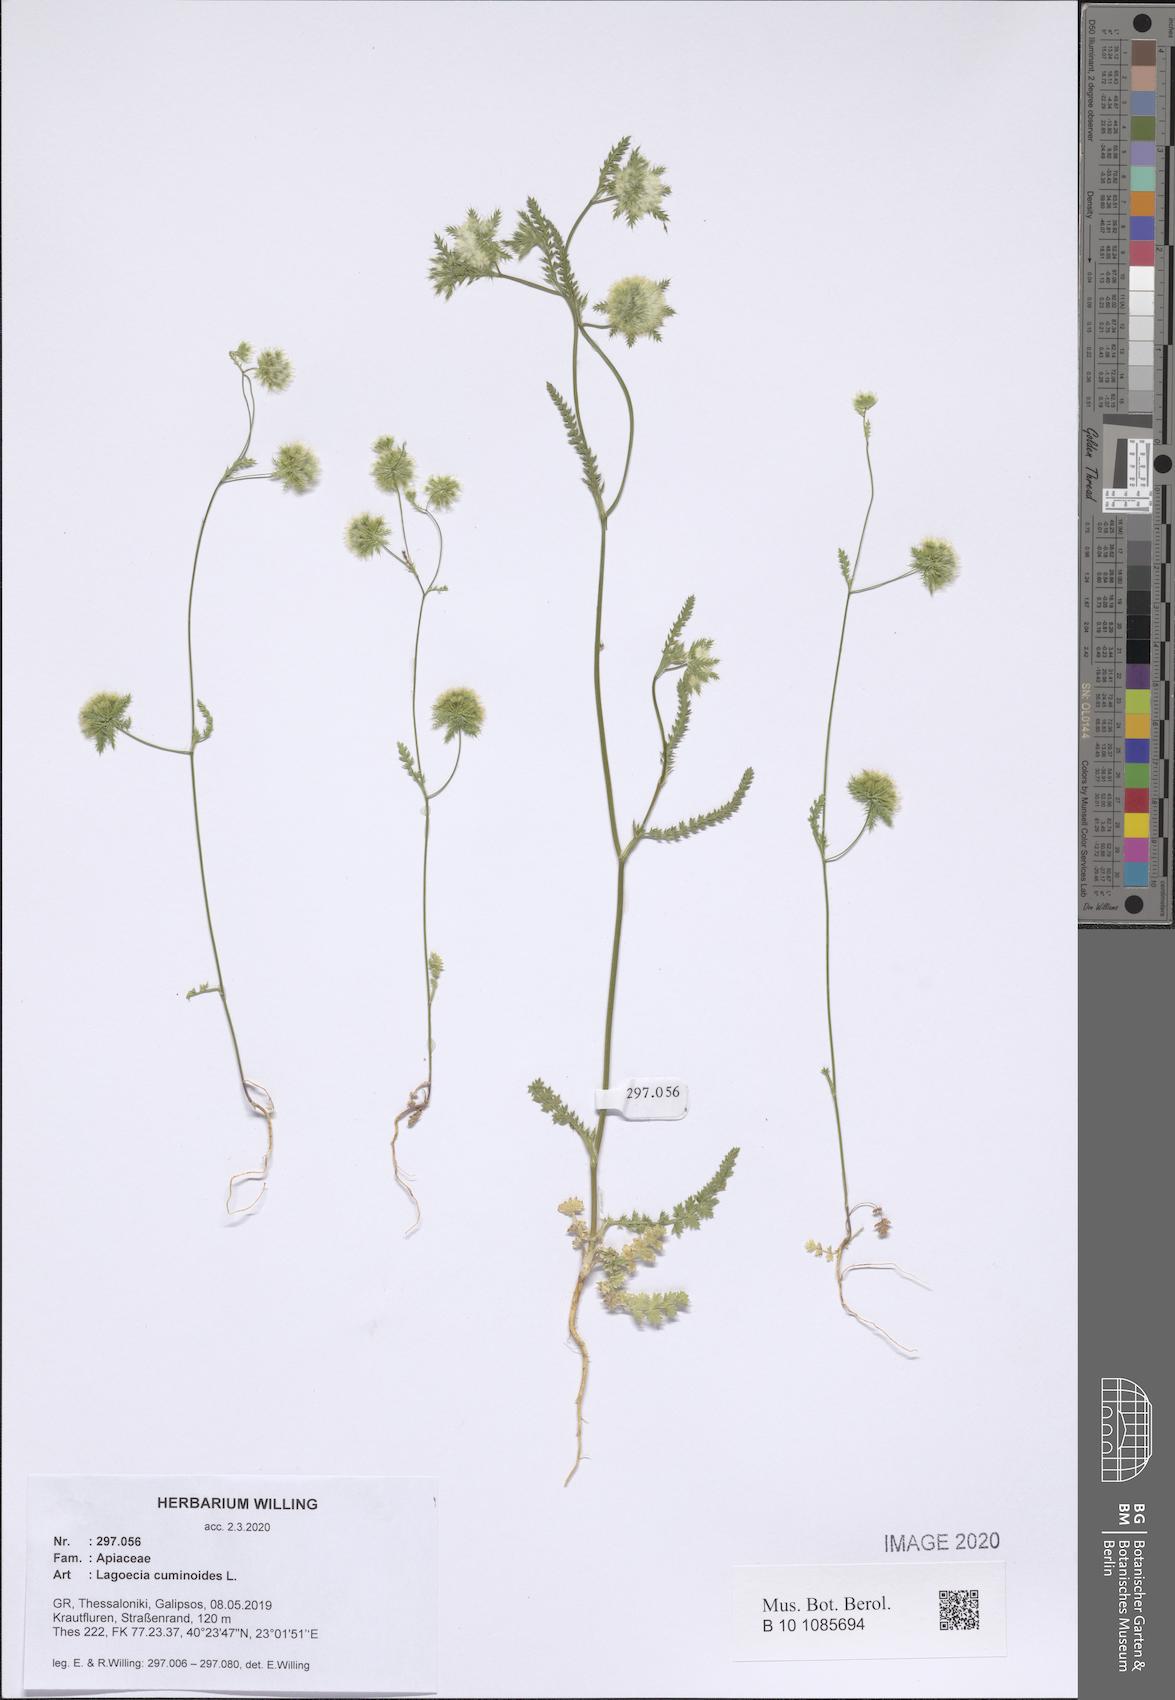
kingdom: Plantae
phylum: Tracheophyta
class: Magnoliopsida
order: Apiales
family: Apiaceae
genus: Lagoecia
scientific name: Lagoecia cuminoides
